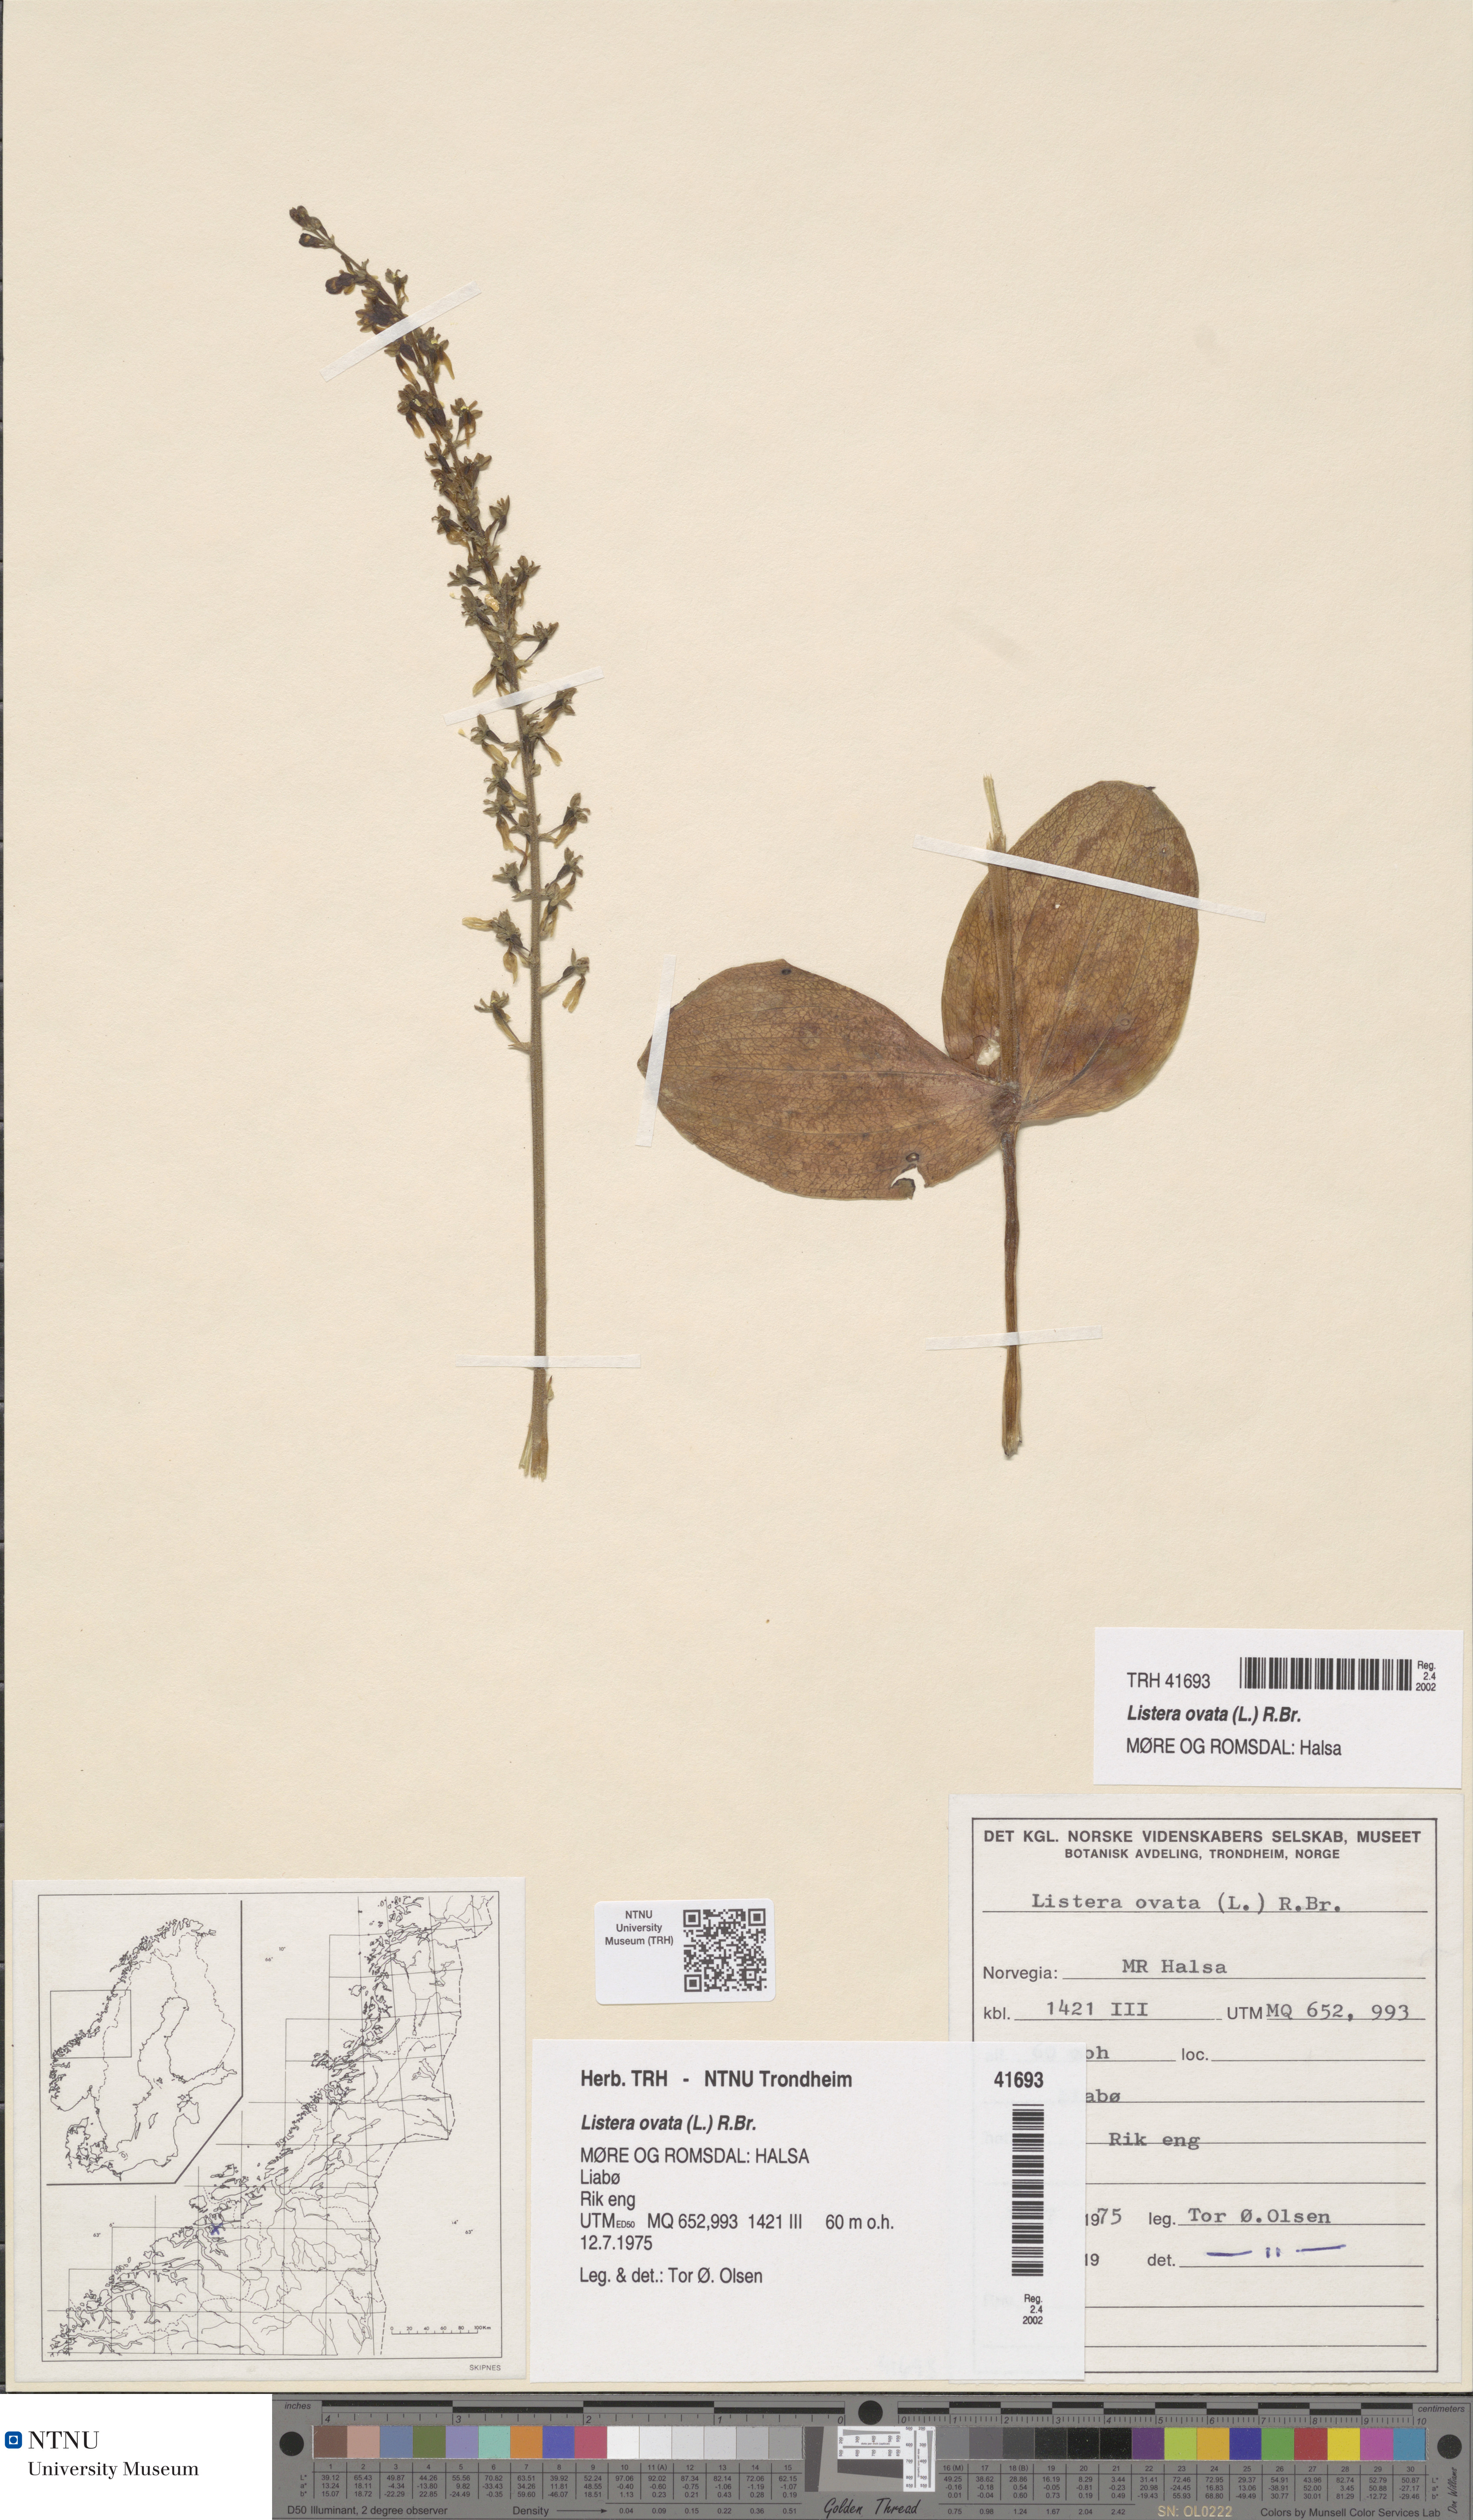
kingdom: Plantae
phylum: Tracheophyta
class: Liliopsida
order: Asparagales
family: Orchidaceae
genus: Neottia
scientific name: Neottia ovata
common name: Common twayblade
